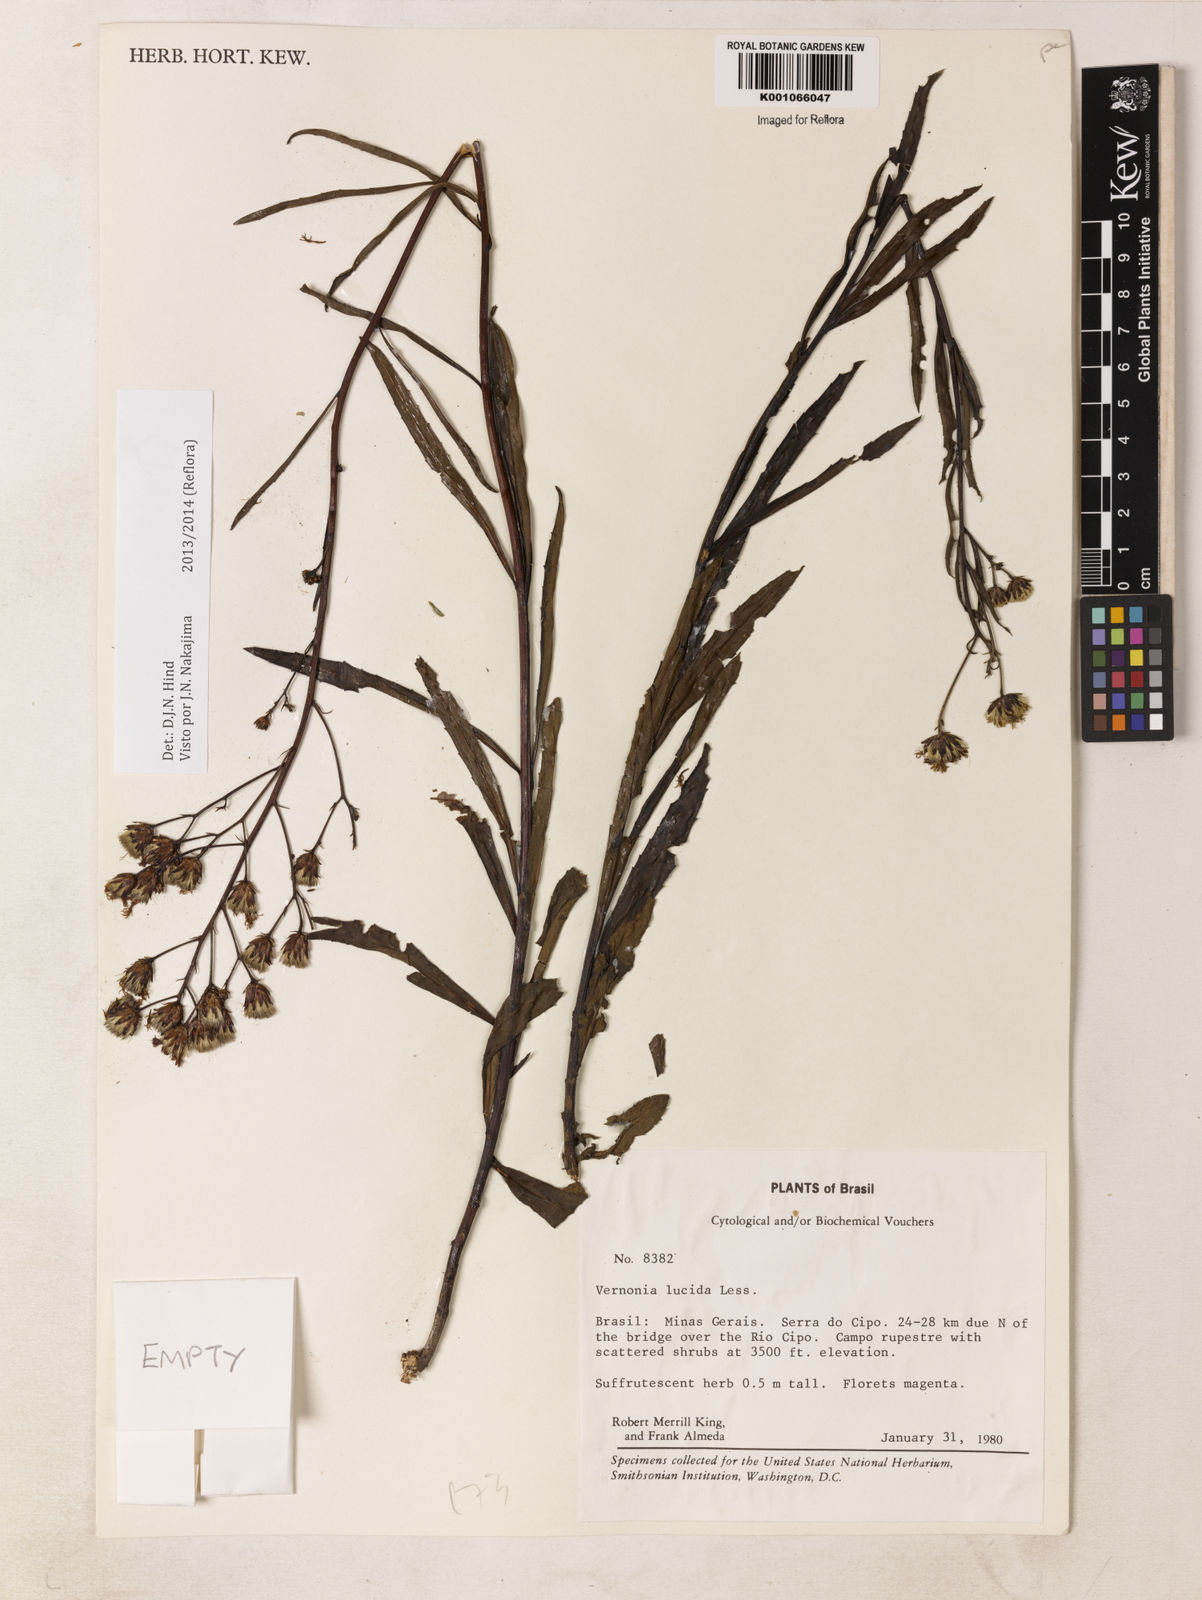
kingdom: Plantae
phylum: Tracheophyta
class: Magnoliopsida
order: Asterales
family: Asteraceae
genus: Vernonanthura
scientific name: Vernonanthura lucida
